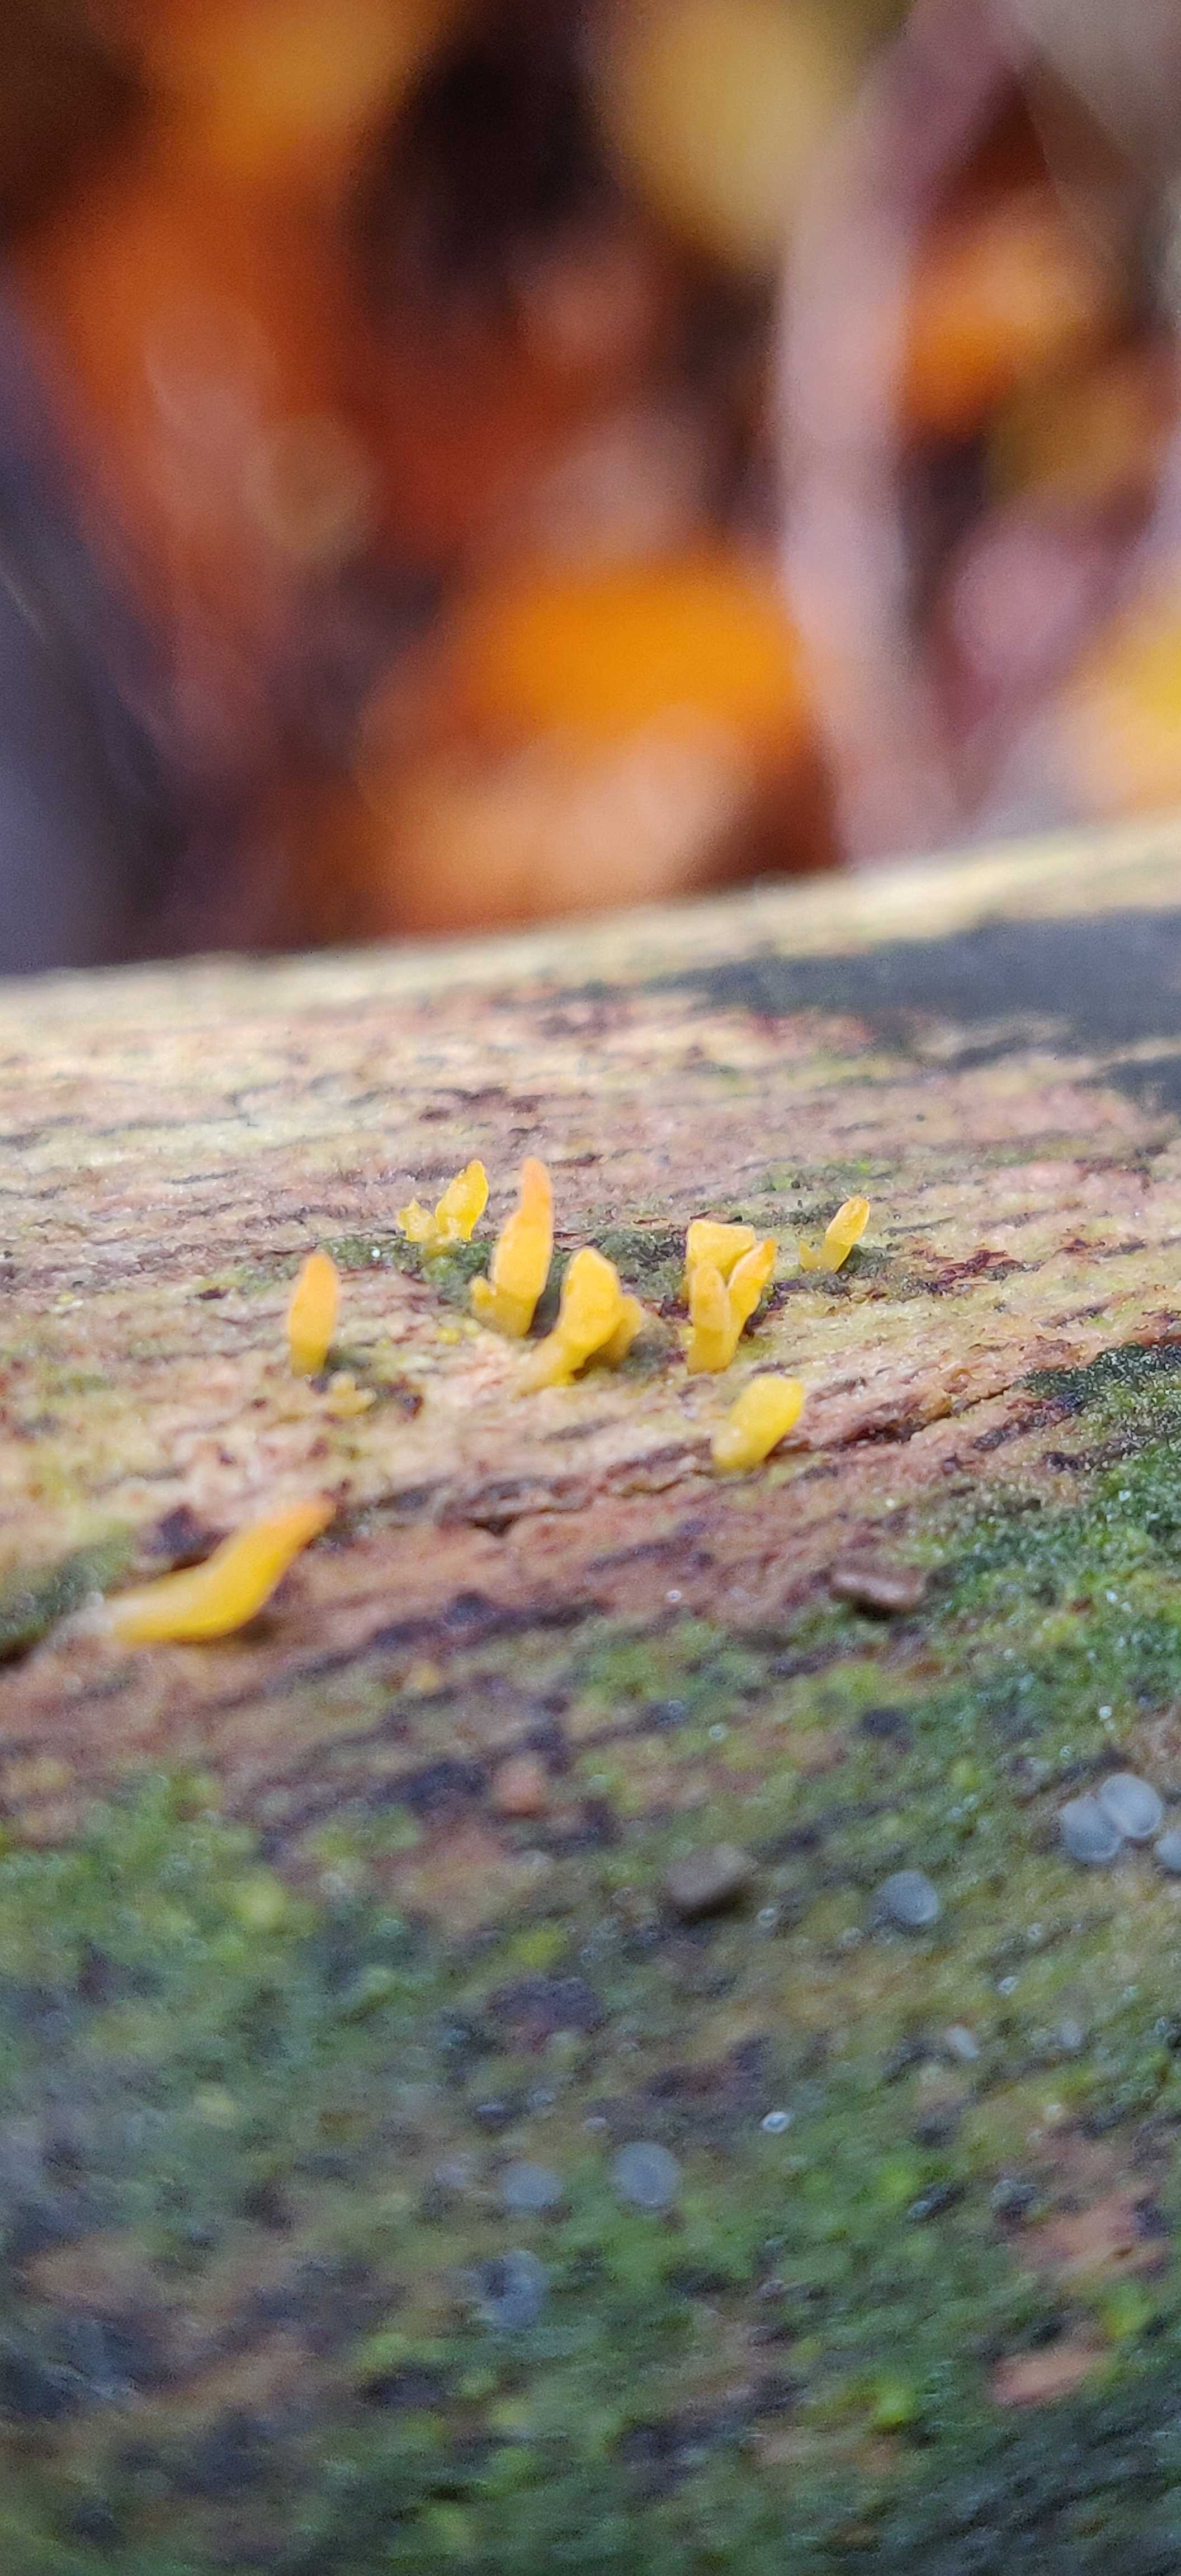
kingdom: Fungi
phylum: Basidiomycota
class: Dacrymycetes
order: Dacrymycetales
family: Dacrymycetaceae
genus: Calocera
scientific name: Calocera cornea
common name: liden guldgaffel
